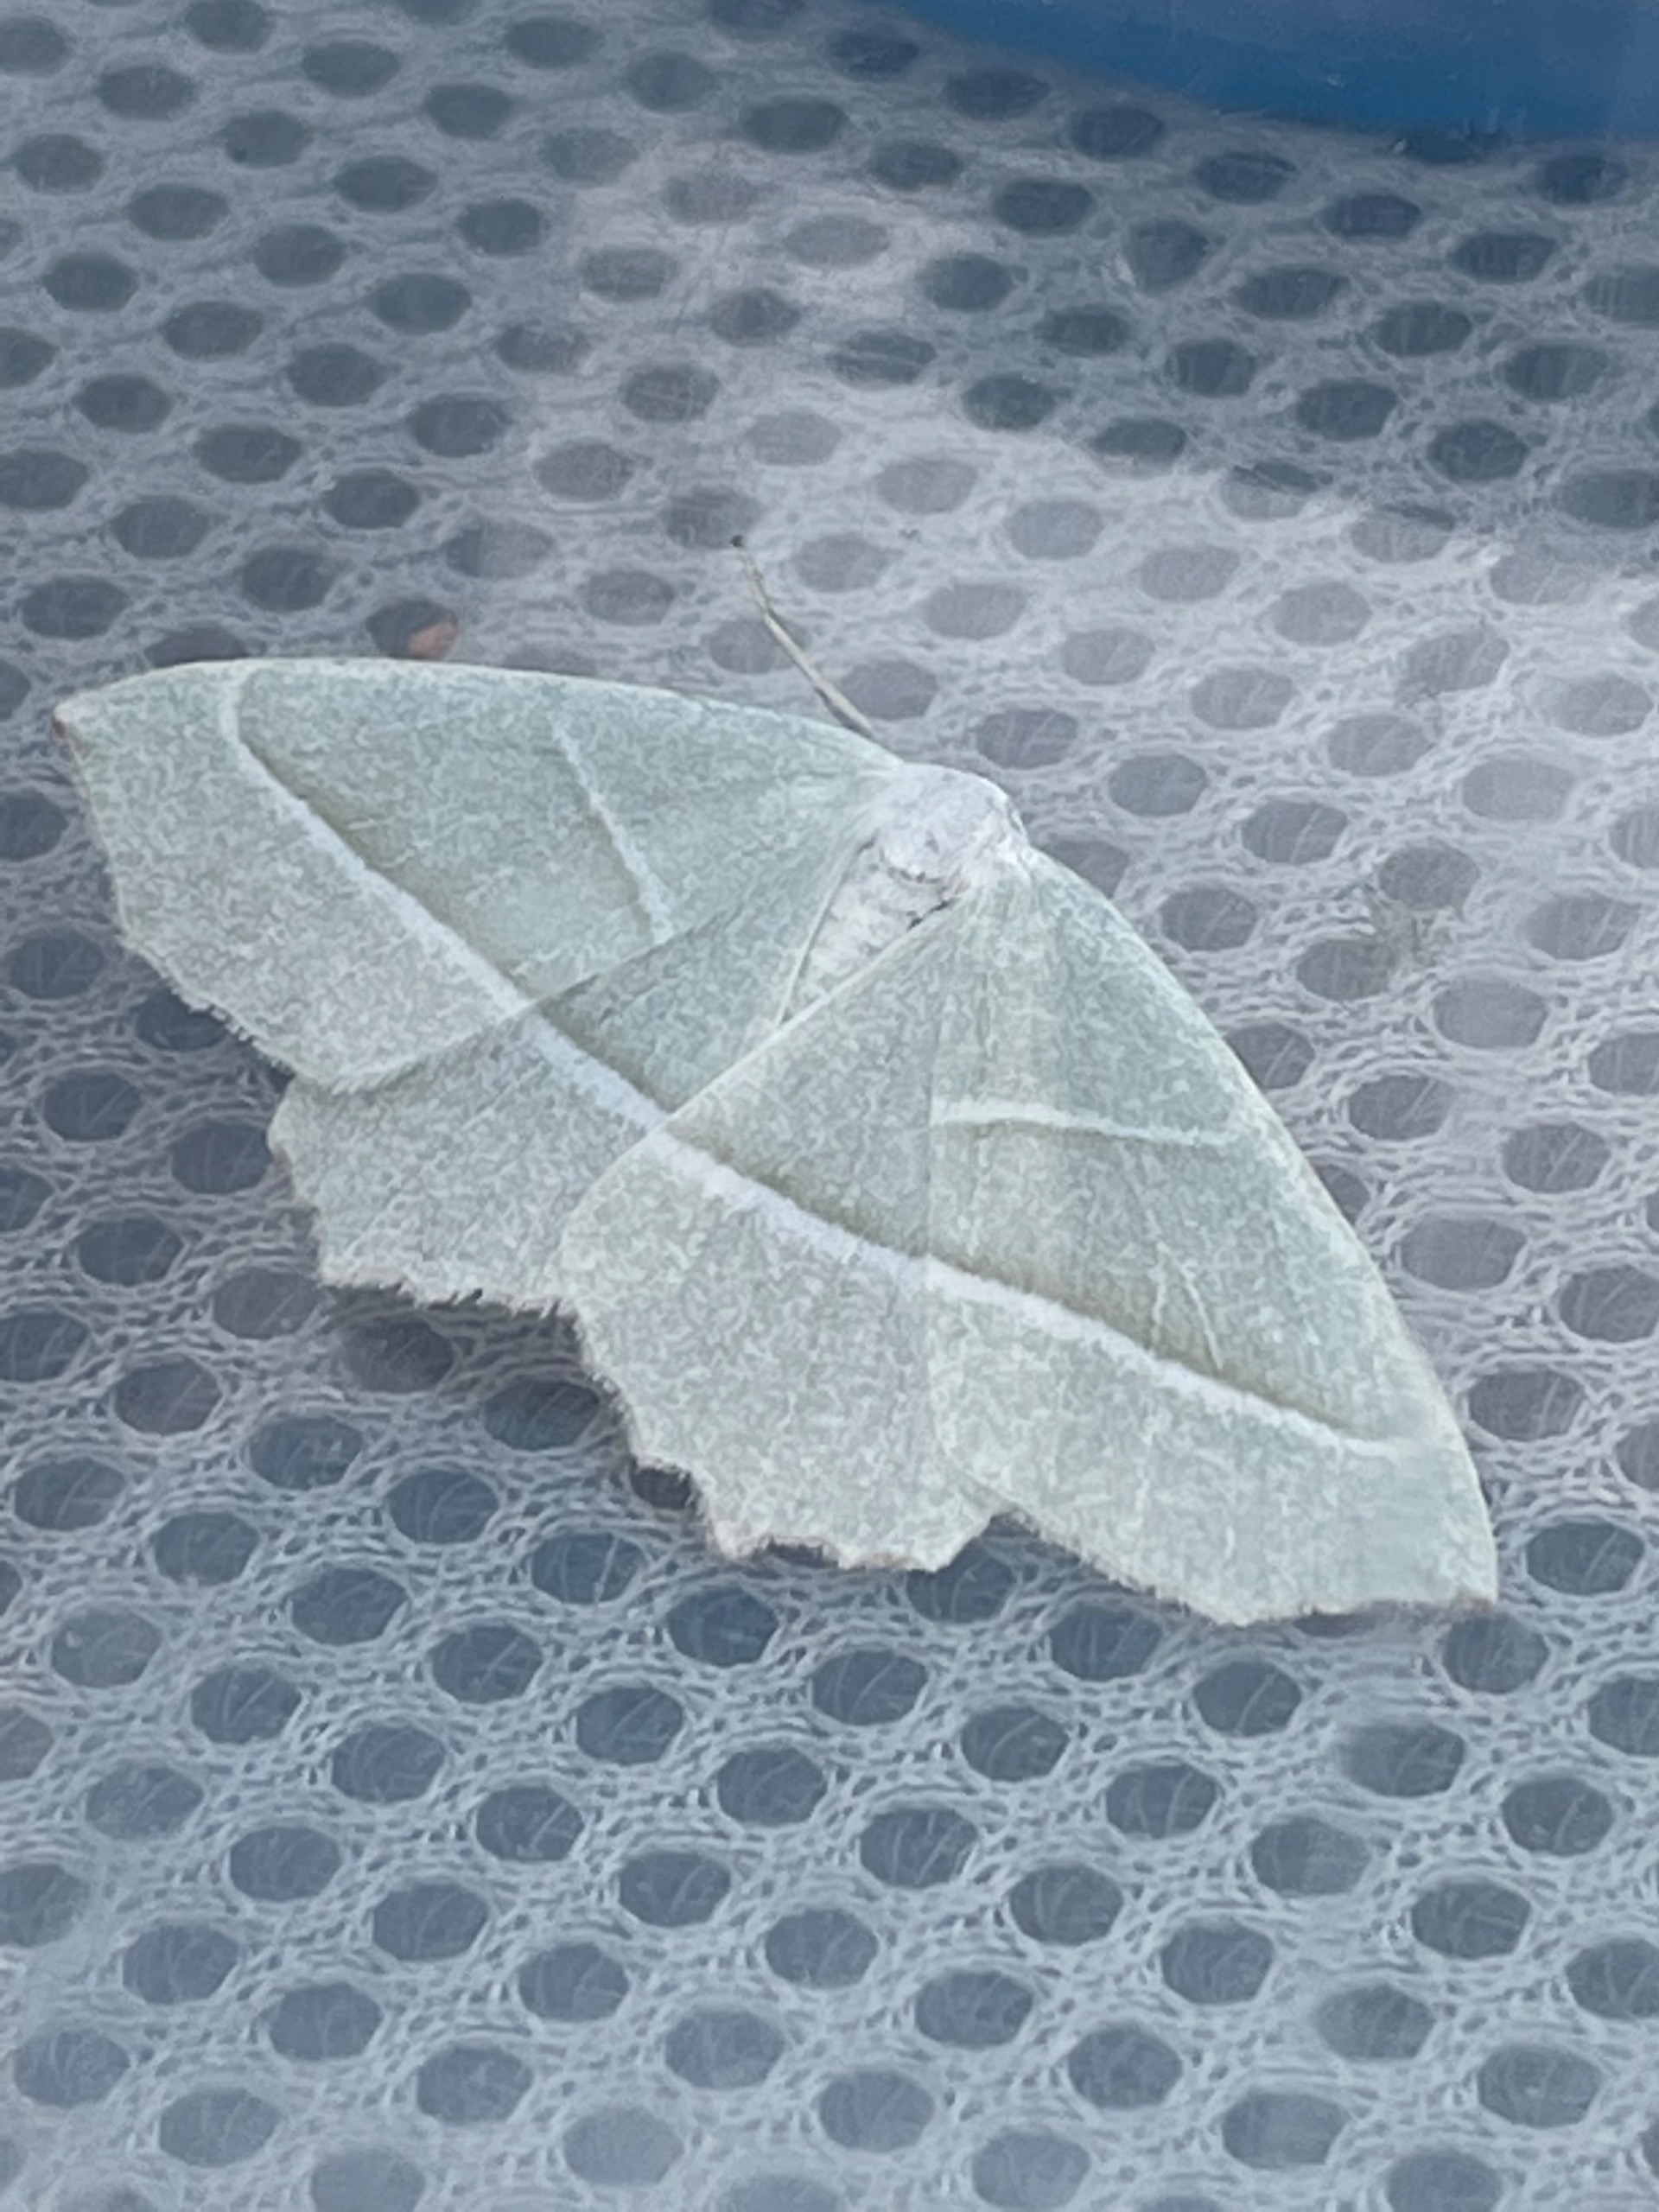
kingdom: Animalia
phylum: Arthropoda
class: Insecta
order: Lepidoptera
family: Geometridae
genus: Campaea
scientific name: Campaea margaritaria
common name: Perlemåler
